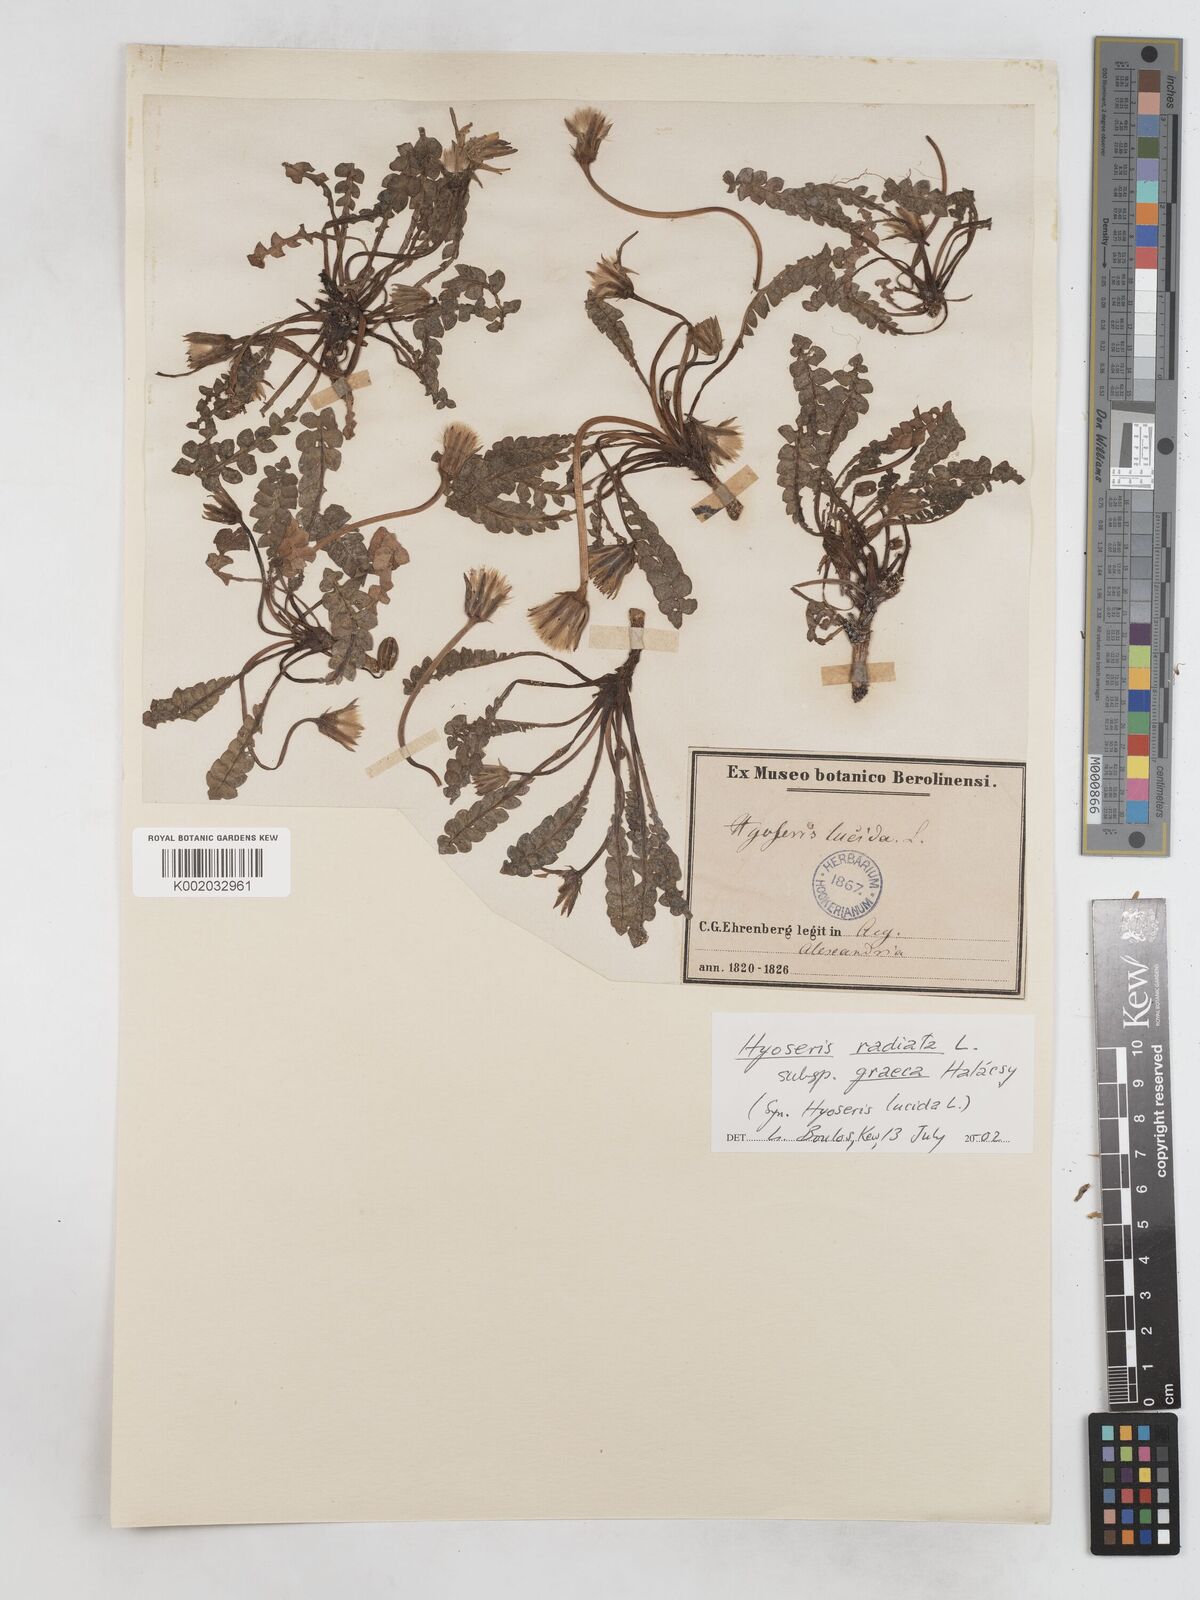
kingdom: Plantae
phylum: Tracheophyta
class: Magnoliopsida
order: Asterales
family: Asteraceae
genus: Hyoseris
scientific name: Hyoseris lucida
